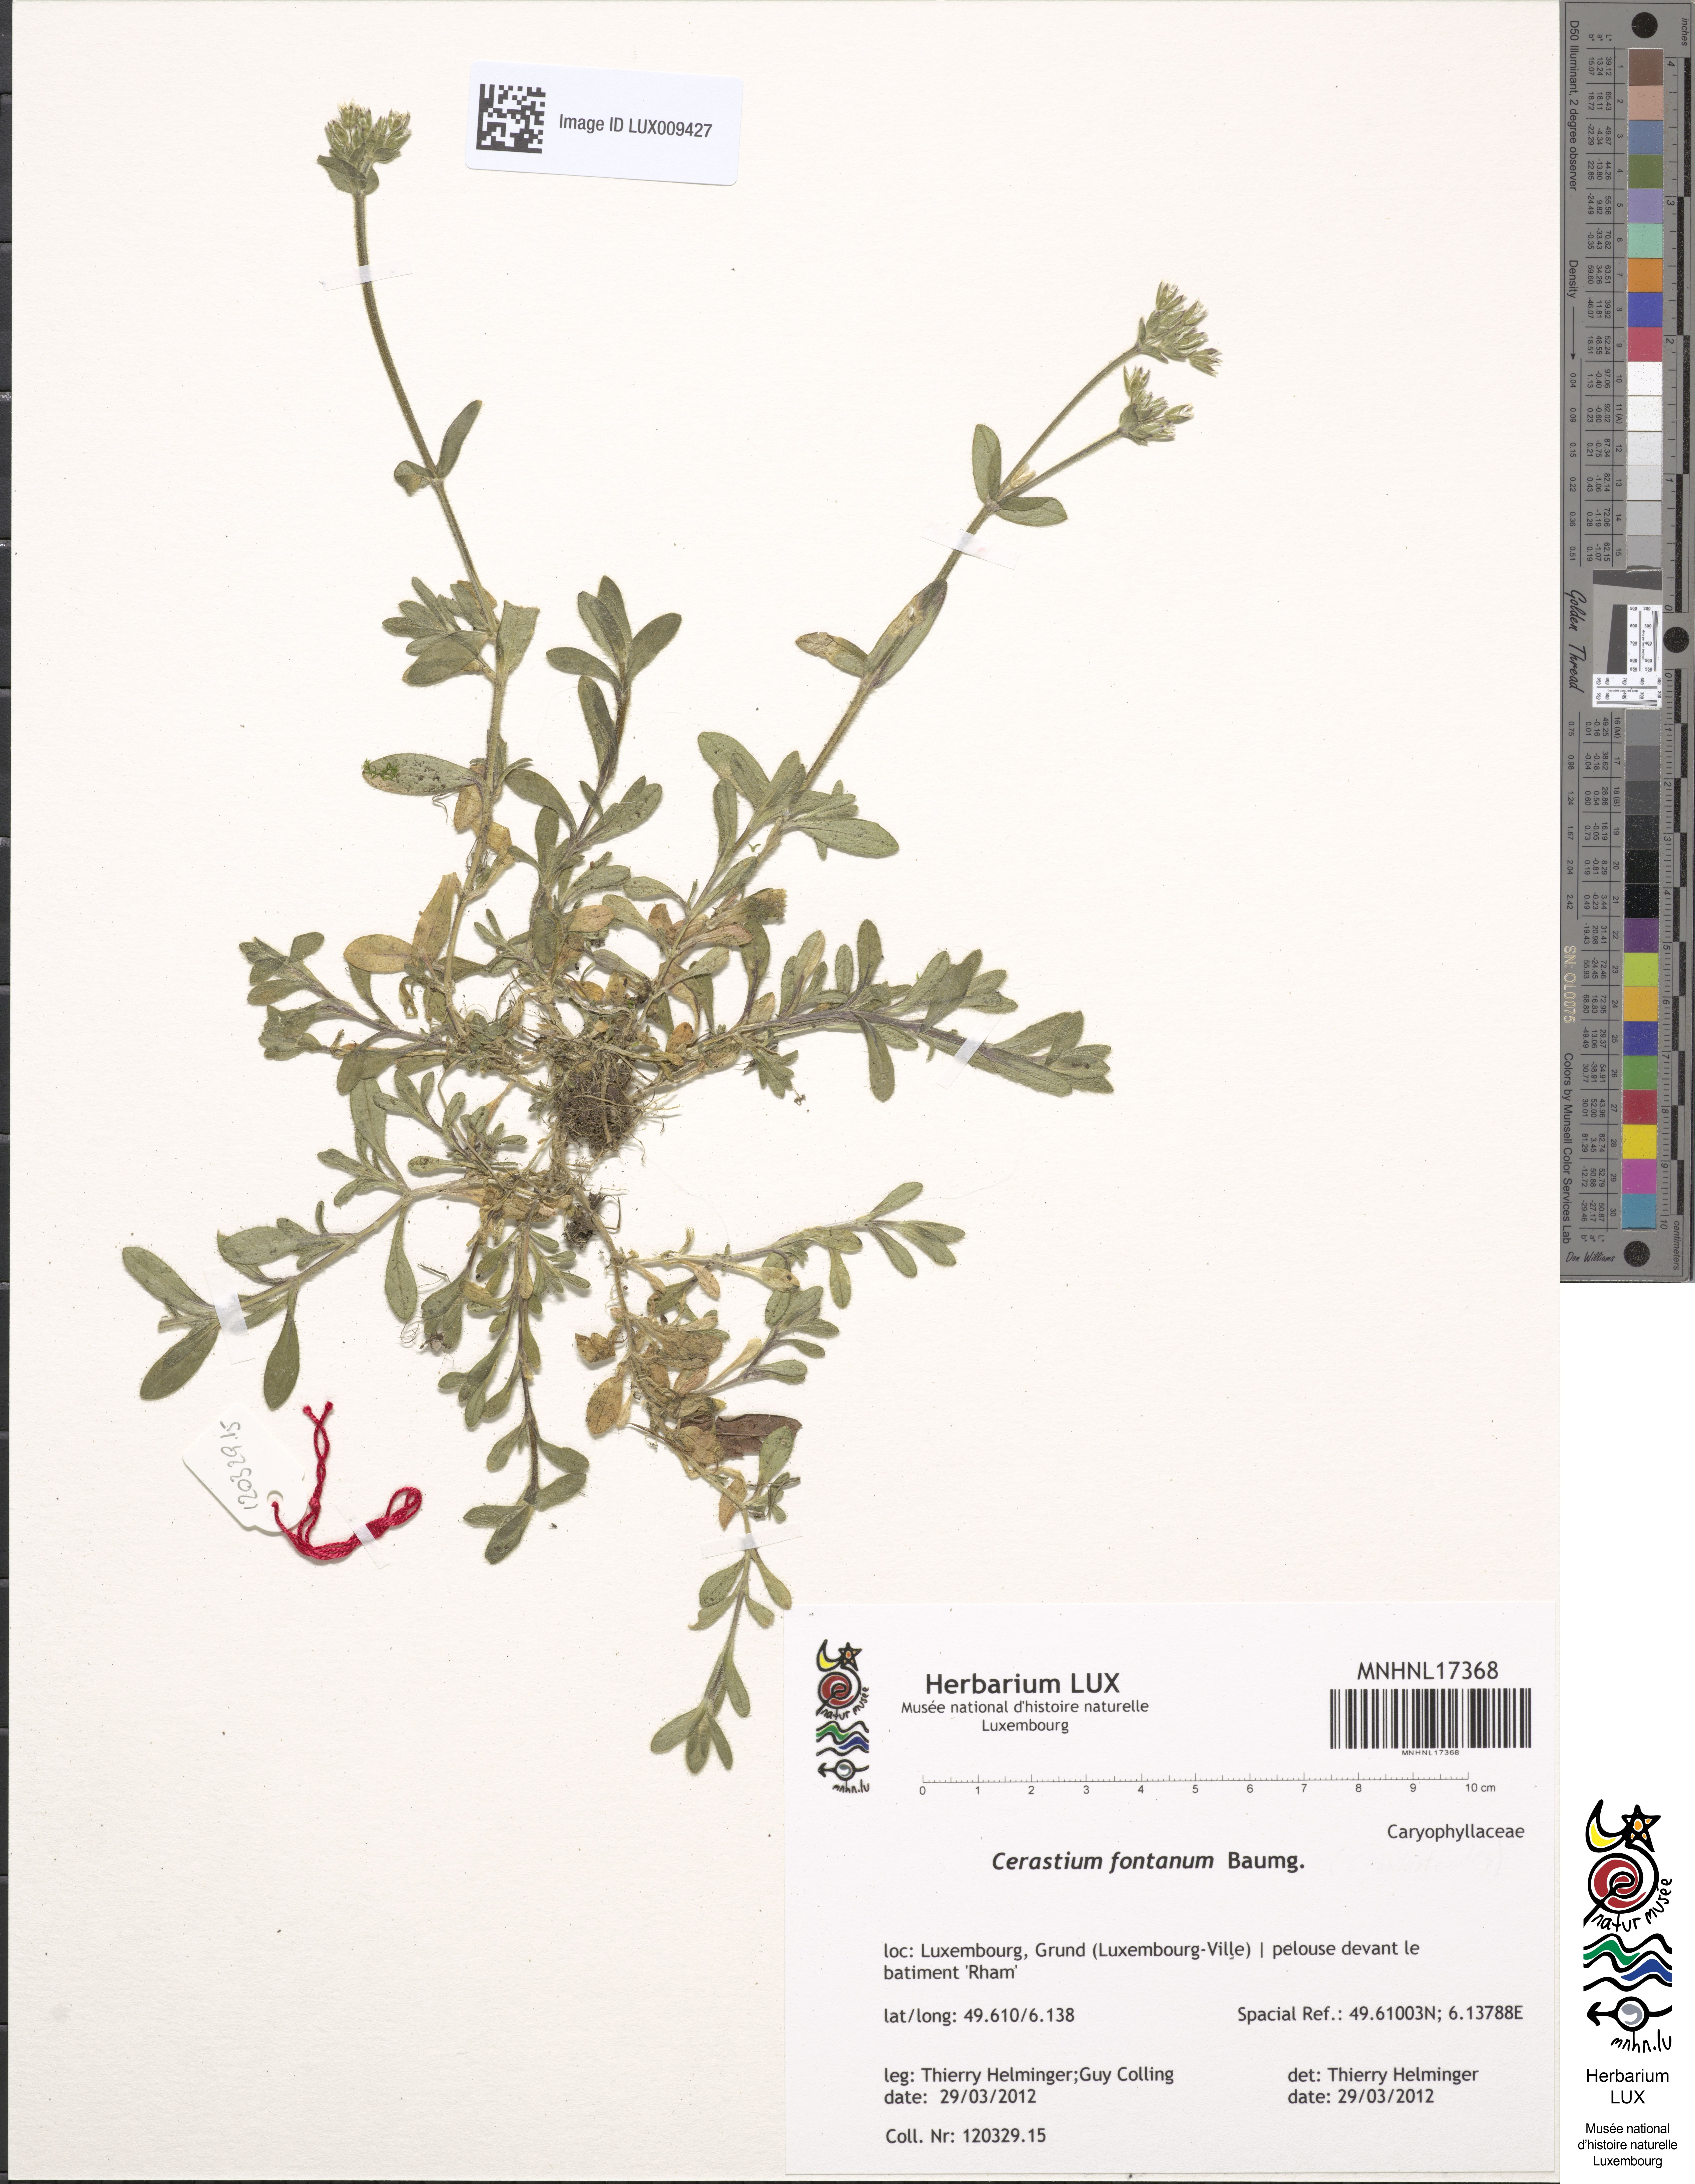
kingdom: Plantae
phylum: Tracheophyta
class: Magnoliopsida
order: Caryophyllales
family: Caryophyllaceae
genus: Cerastium
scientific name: Cerastium fontanum
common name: Common mouse-ear
